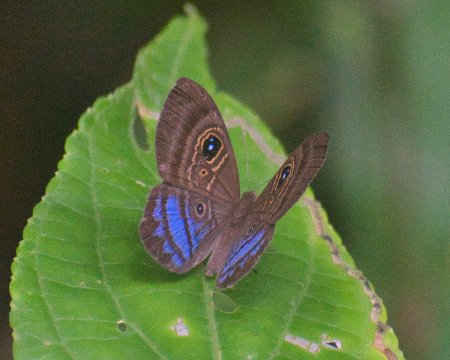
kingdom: Animalia
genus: Mesosemia
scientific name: Mesosemia lamachus
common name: Purple-washed Eyed-Metalmark
